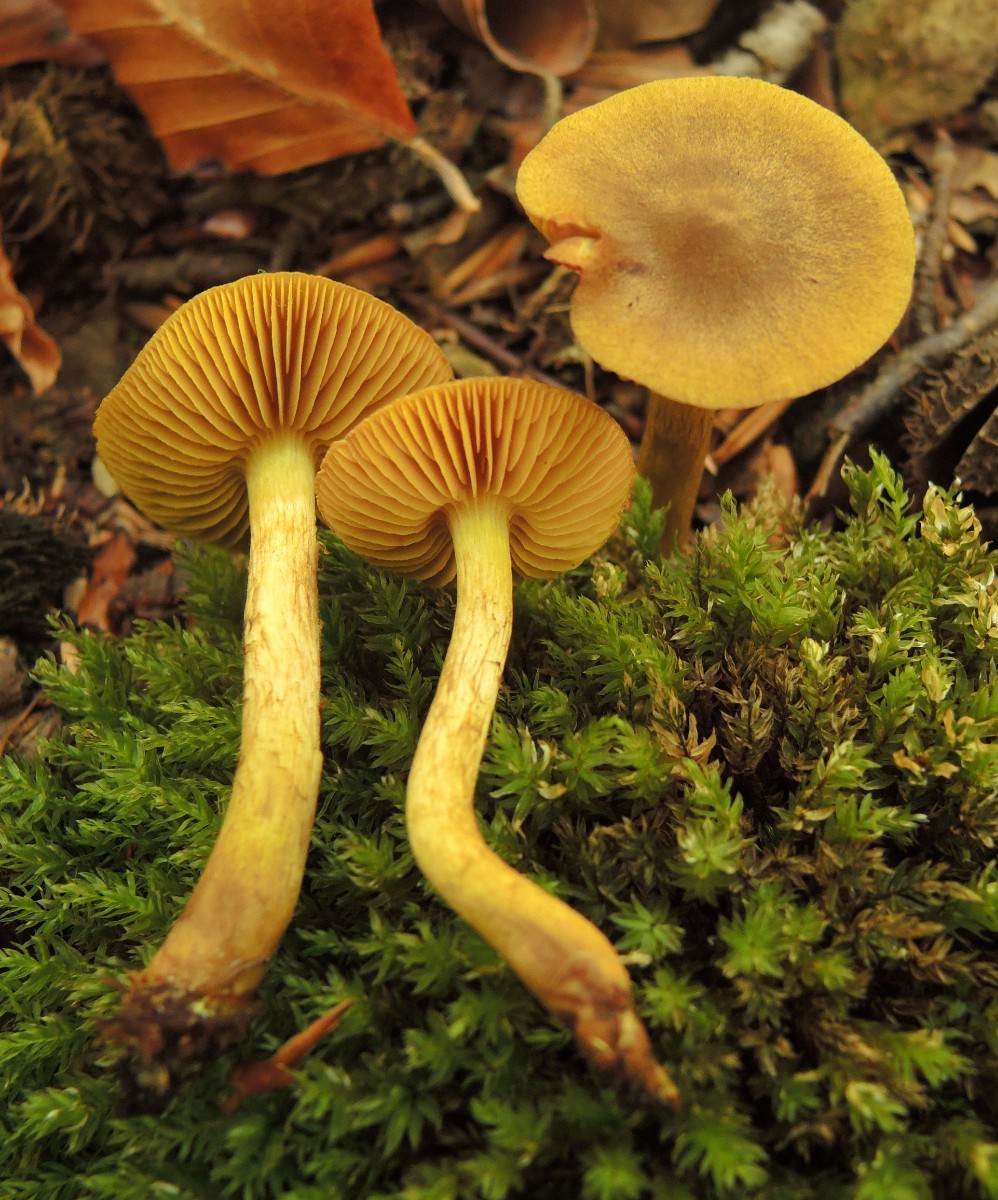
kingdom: Fungi
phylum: Basidiomycota
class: Agaricomycetes
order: Agaricales
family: Cortinariaceae
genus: Cortinarius
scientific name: Cortinarius olivaceofuscus
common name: olivenbrun slørhat
